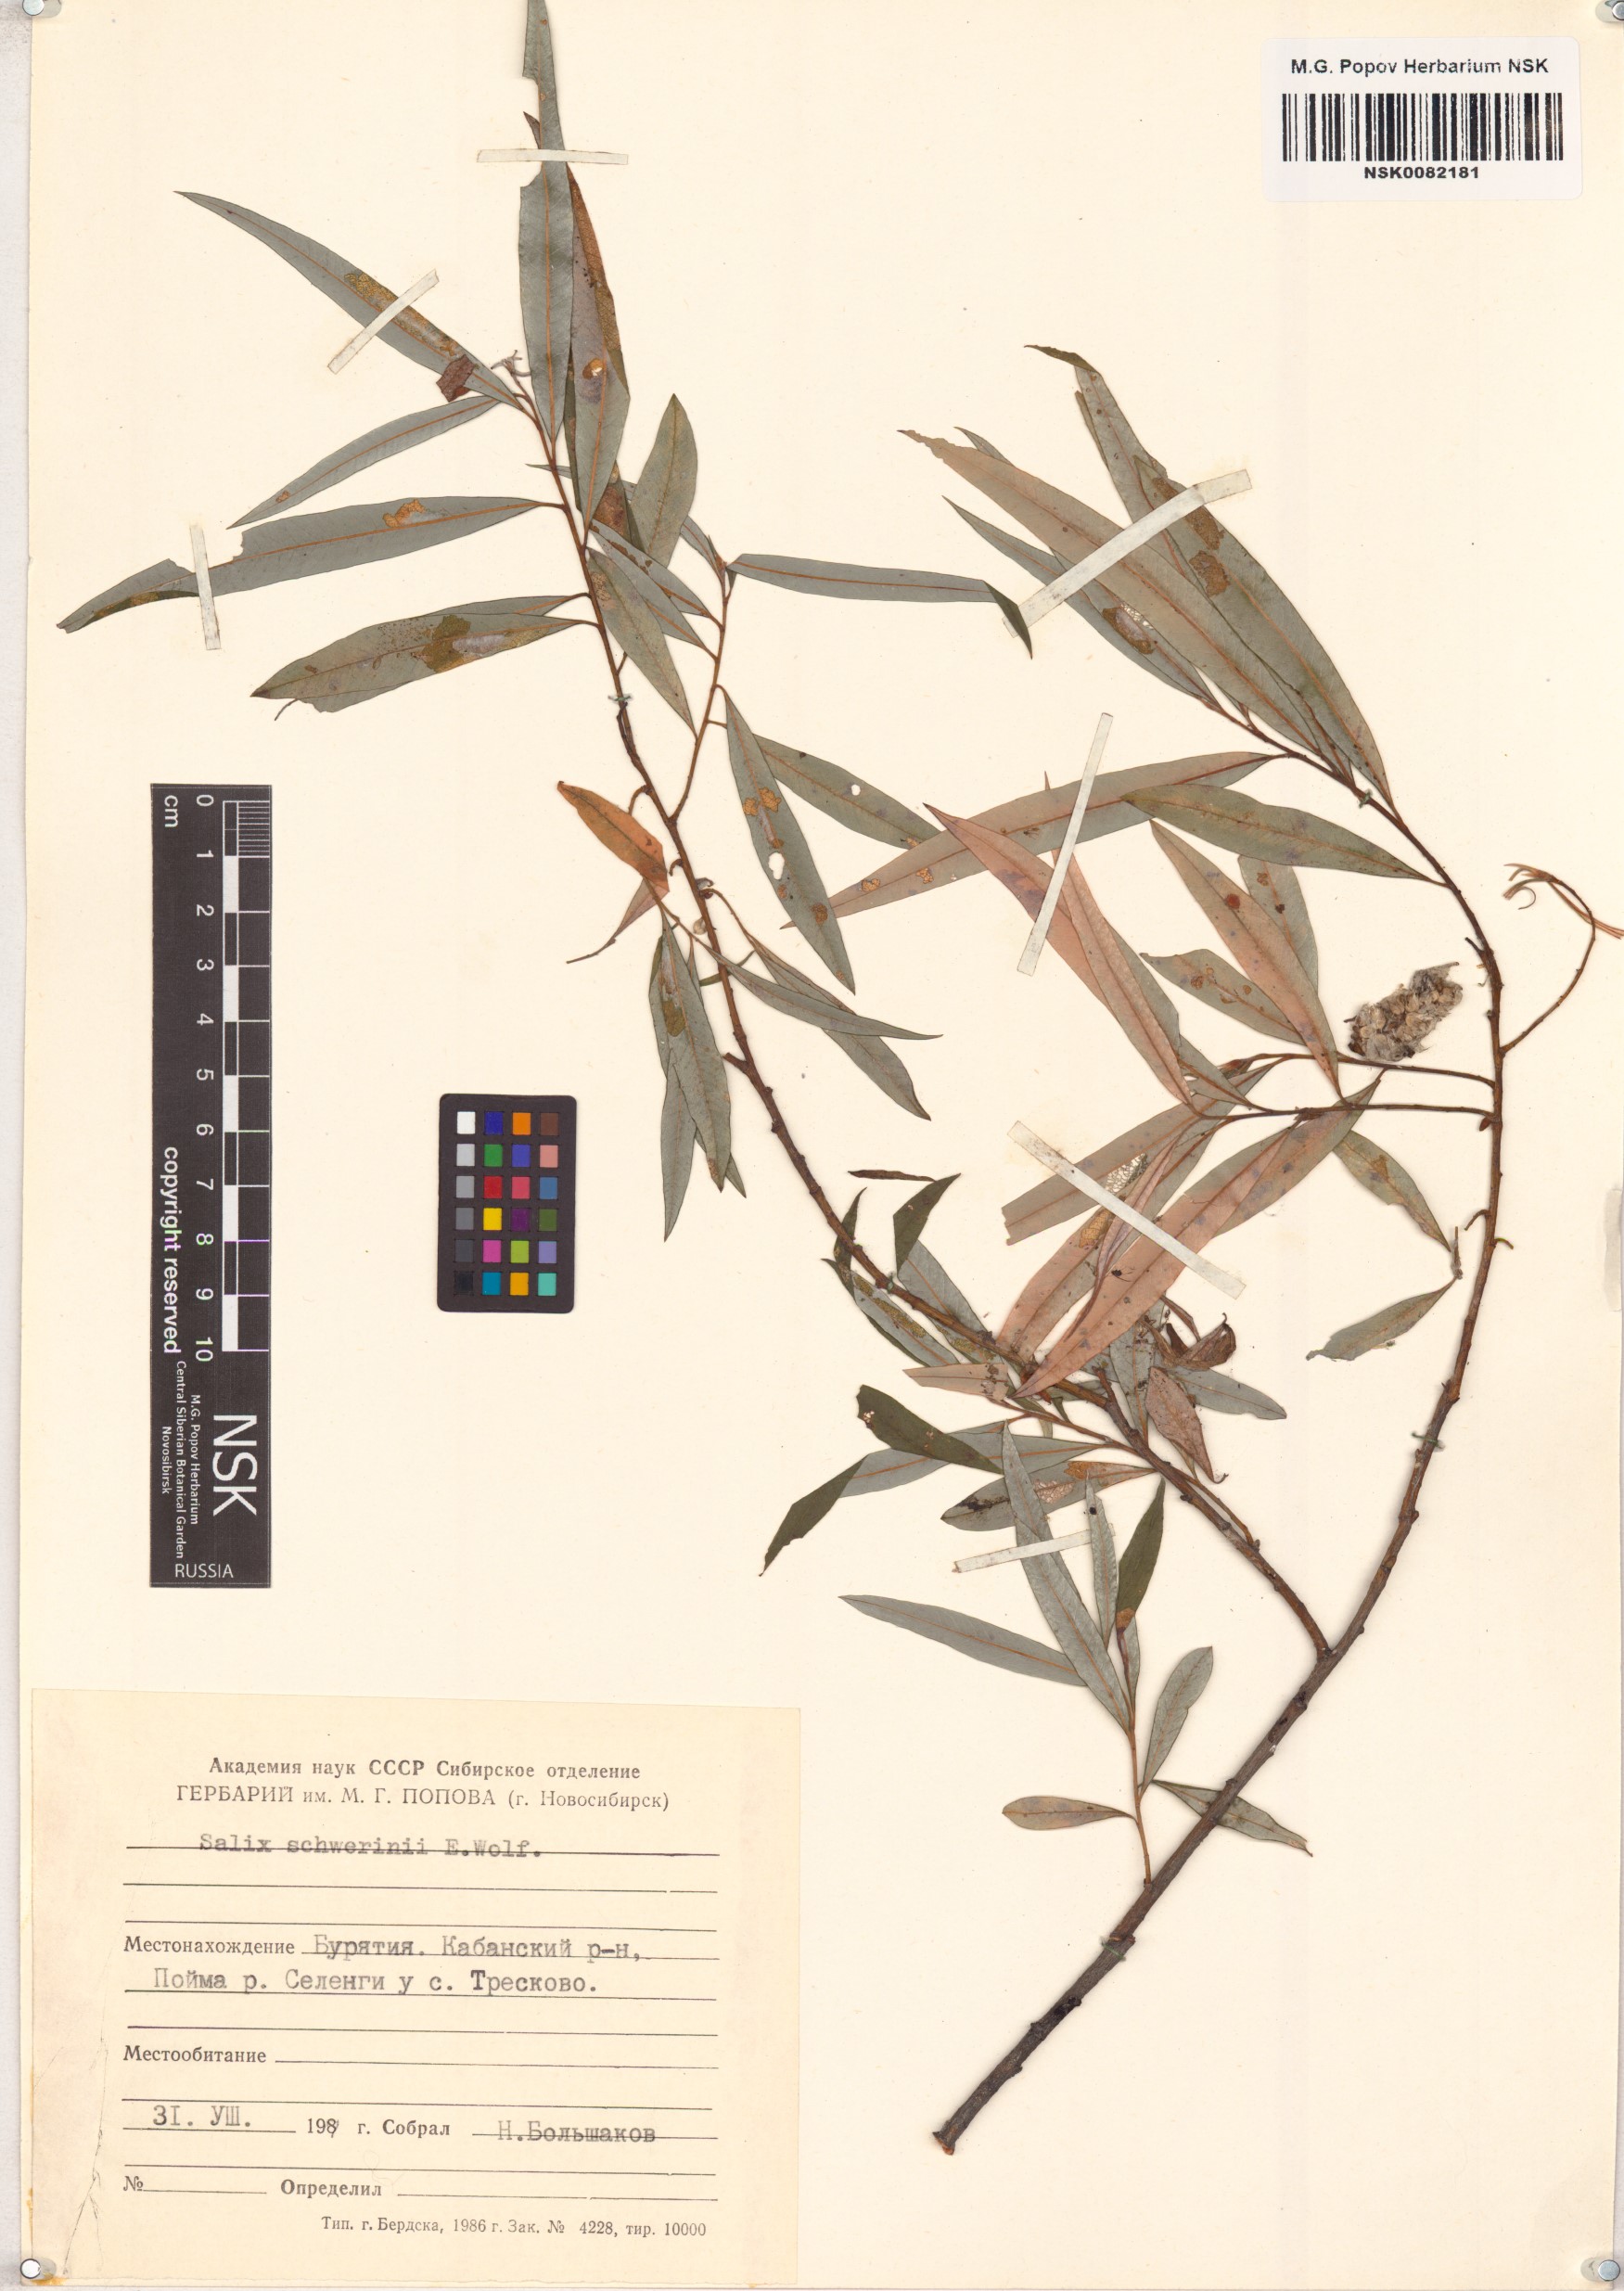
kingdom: Plantae
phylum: Tracheophyta
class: Magnoliopsida
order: Malpighiales
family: Salicaceae
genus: Salix
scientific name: Salix schwerinii
